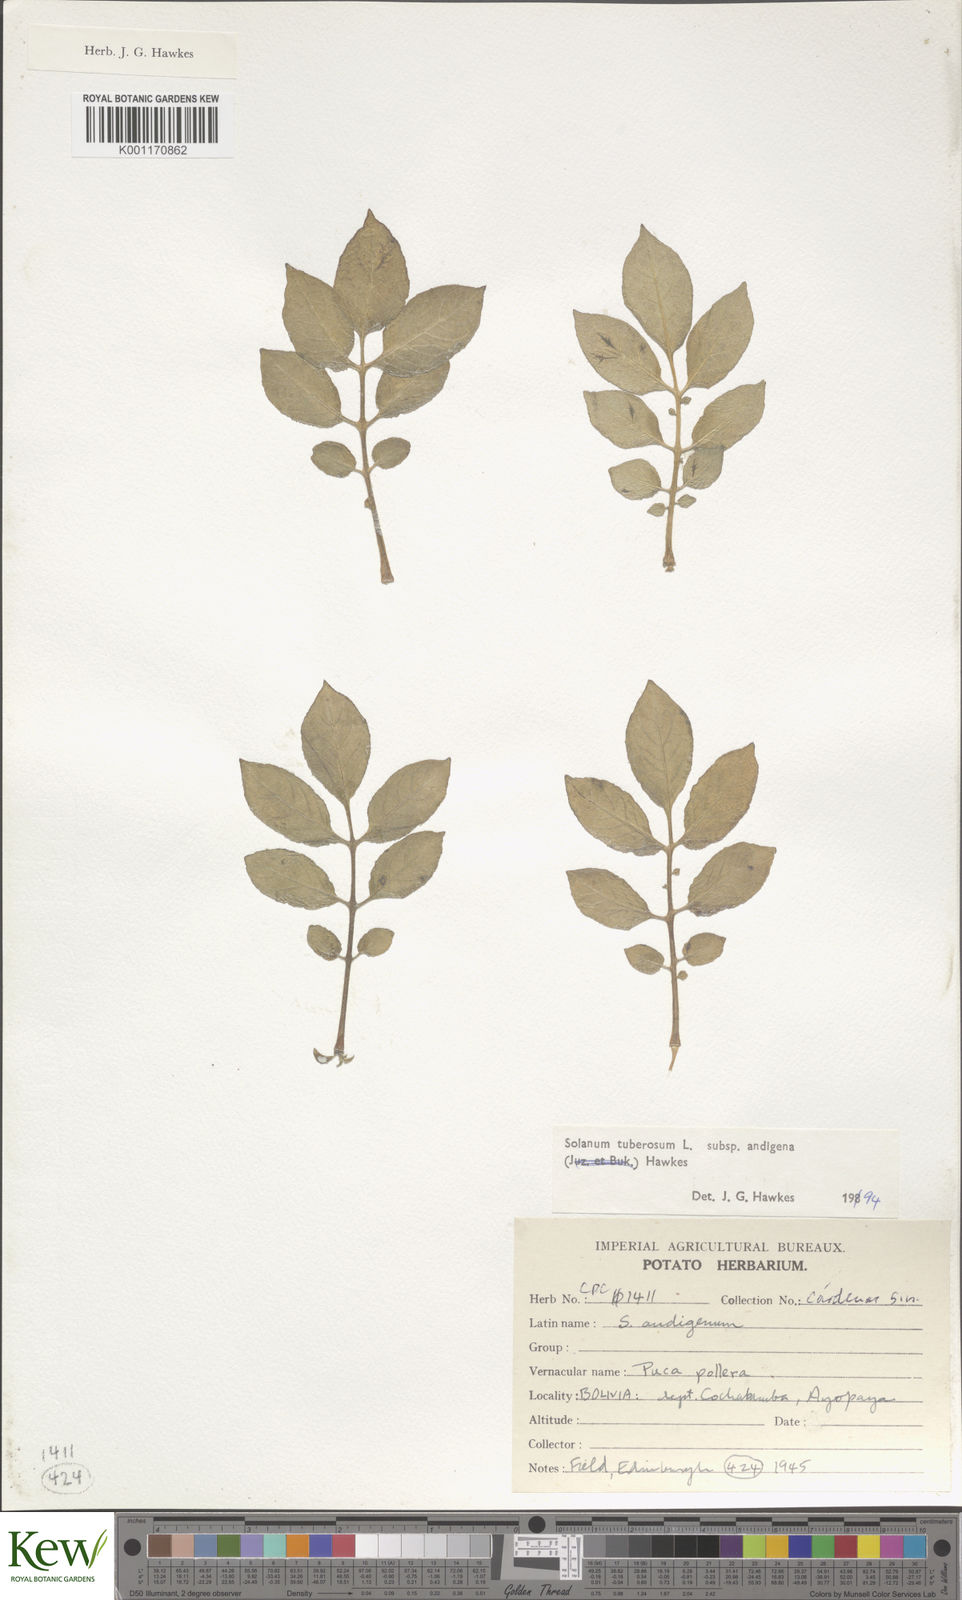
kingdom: Plantae
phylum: Tracheophyta
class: Magnoliopsida
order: Solanales
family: Solanaceae
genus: Solanum
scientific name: Solanum tuberosum
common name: Potato
